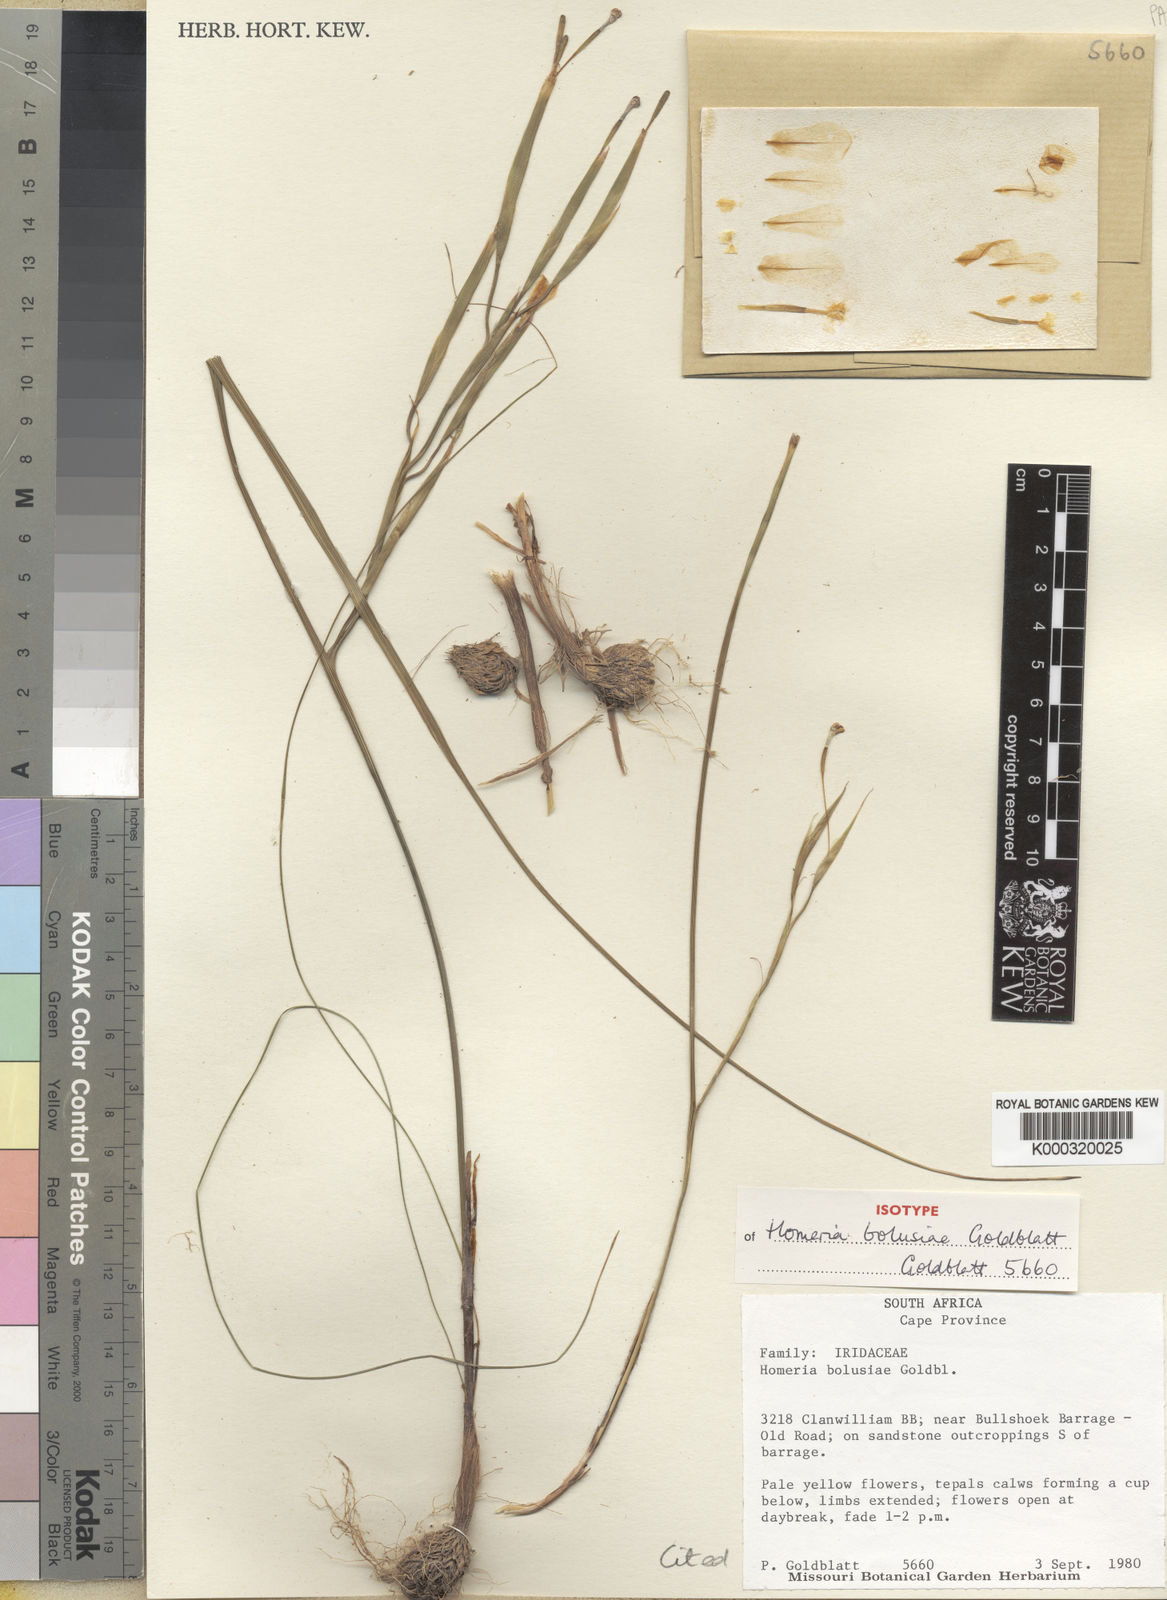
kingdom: Plantae
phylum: Tracheophyta
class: Liliopsida
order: Asparagales
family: Iridaceae
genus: Moraea
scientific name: Moraea louisabolusiae
